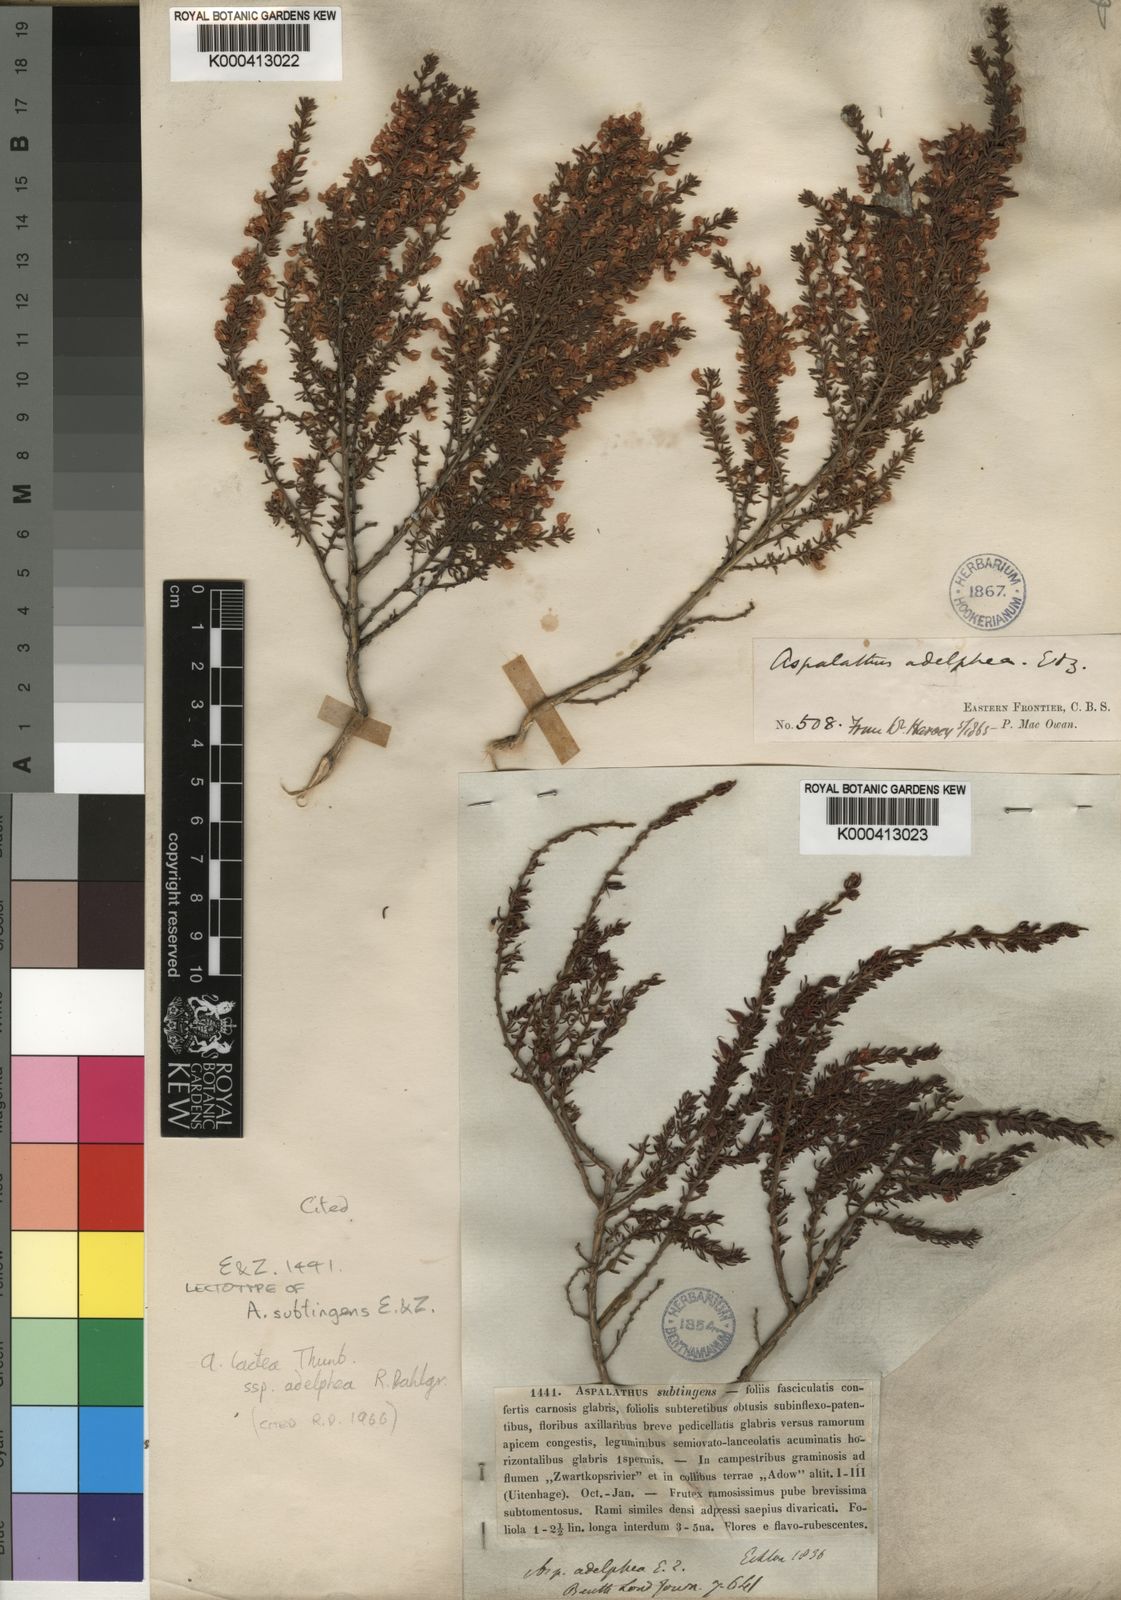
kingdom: Plantae
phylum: Tracheophyta
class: Magnoliopsida
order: Fabales
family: Fabaceae
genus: Aspalathus
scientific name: Aspalathus lactea
